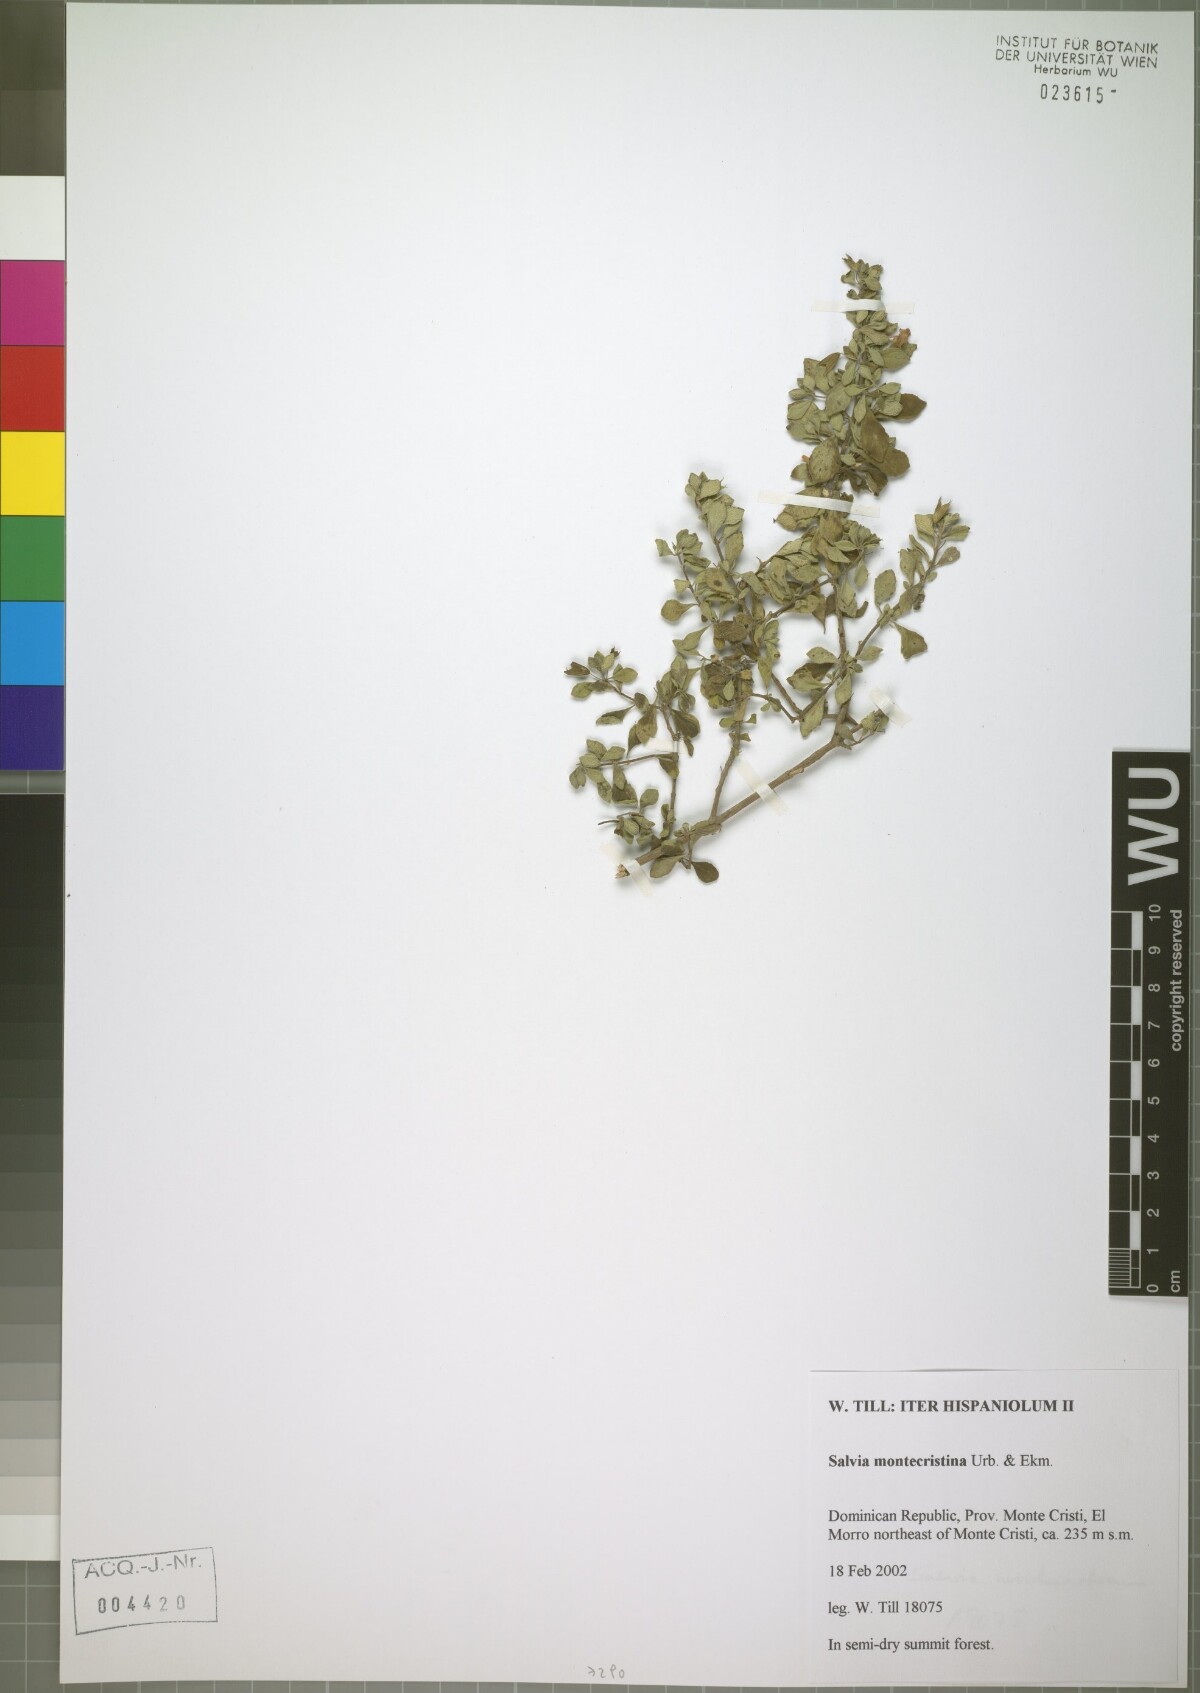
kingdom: Plantae
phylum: Tracheophyta
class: Magnoliopsida
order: Lamiales
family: Lamiaceae
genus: Salvia
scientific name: Salvia montecristina
